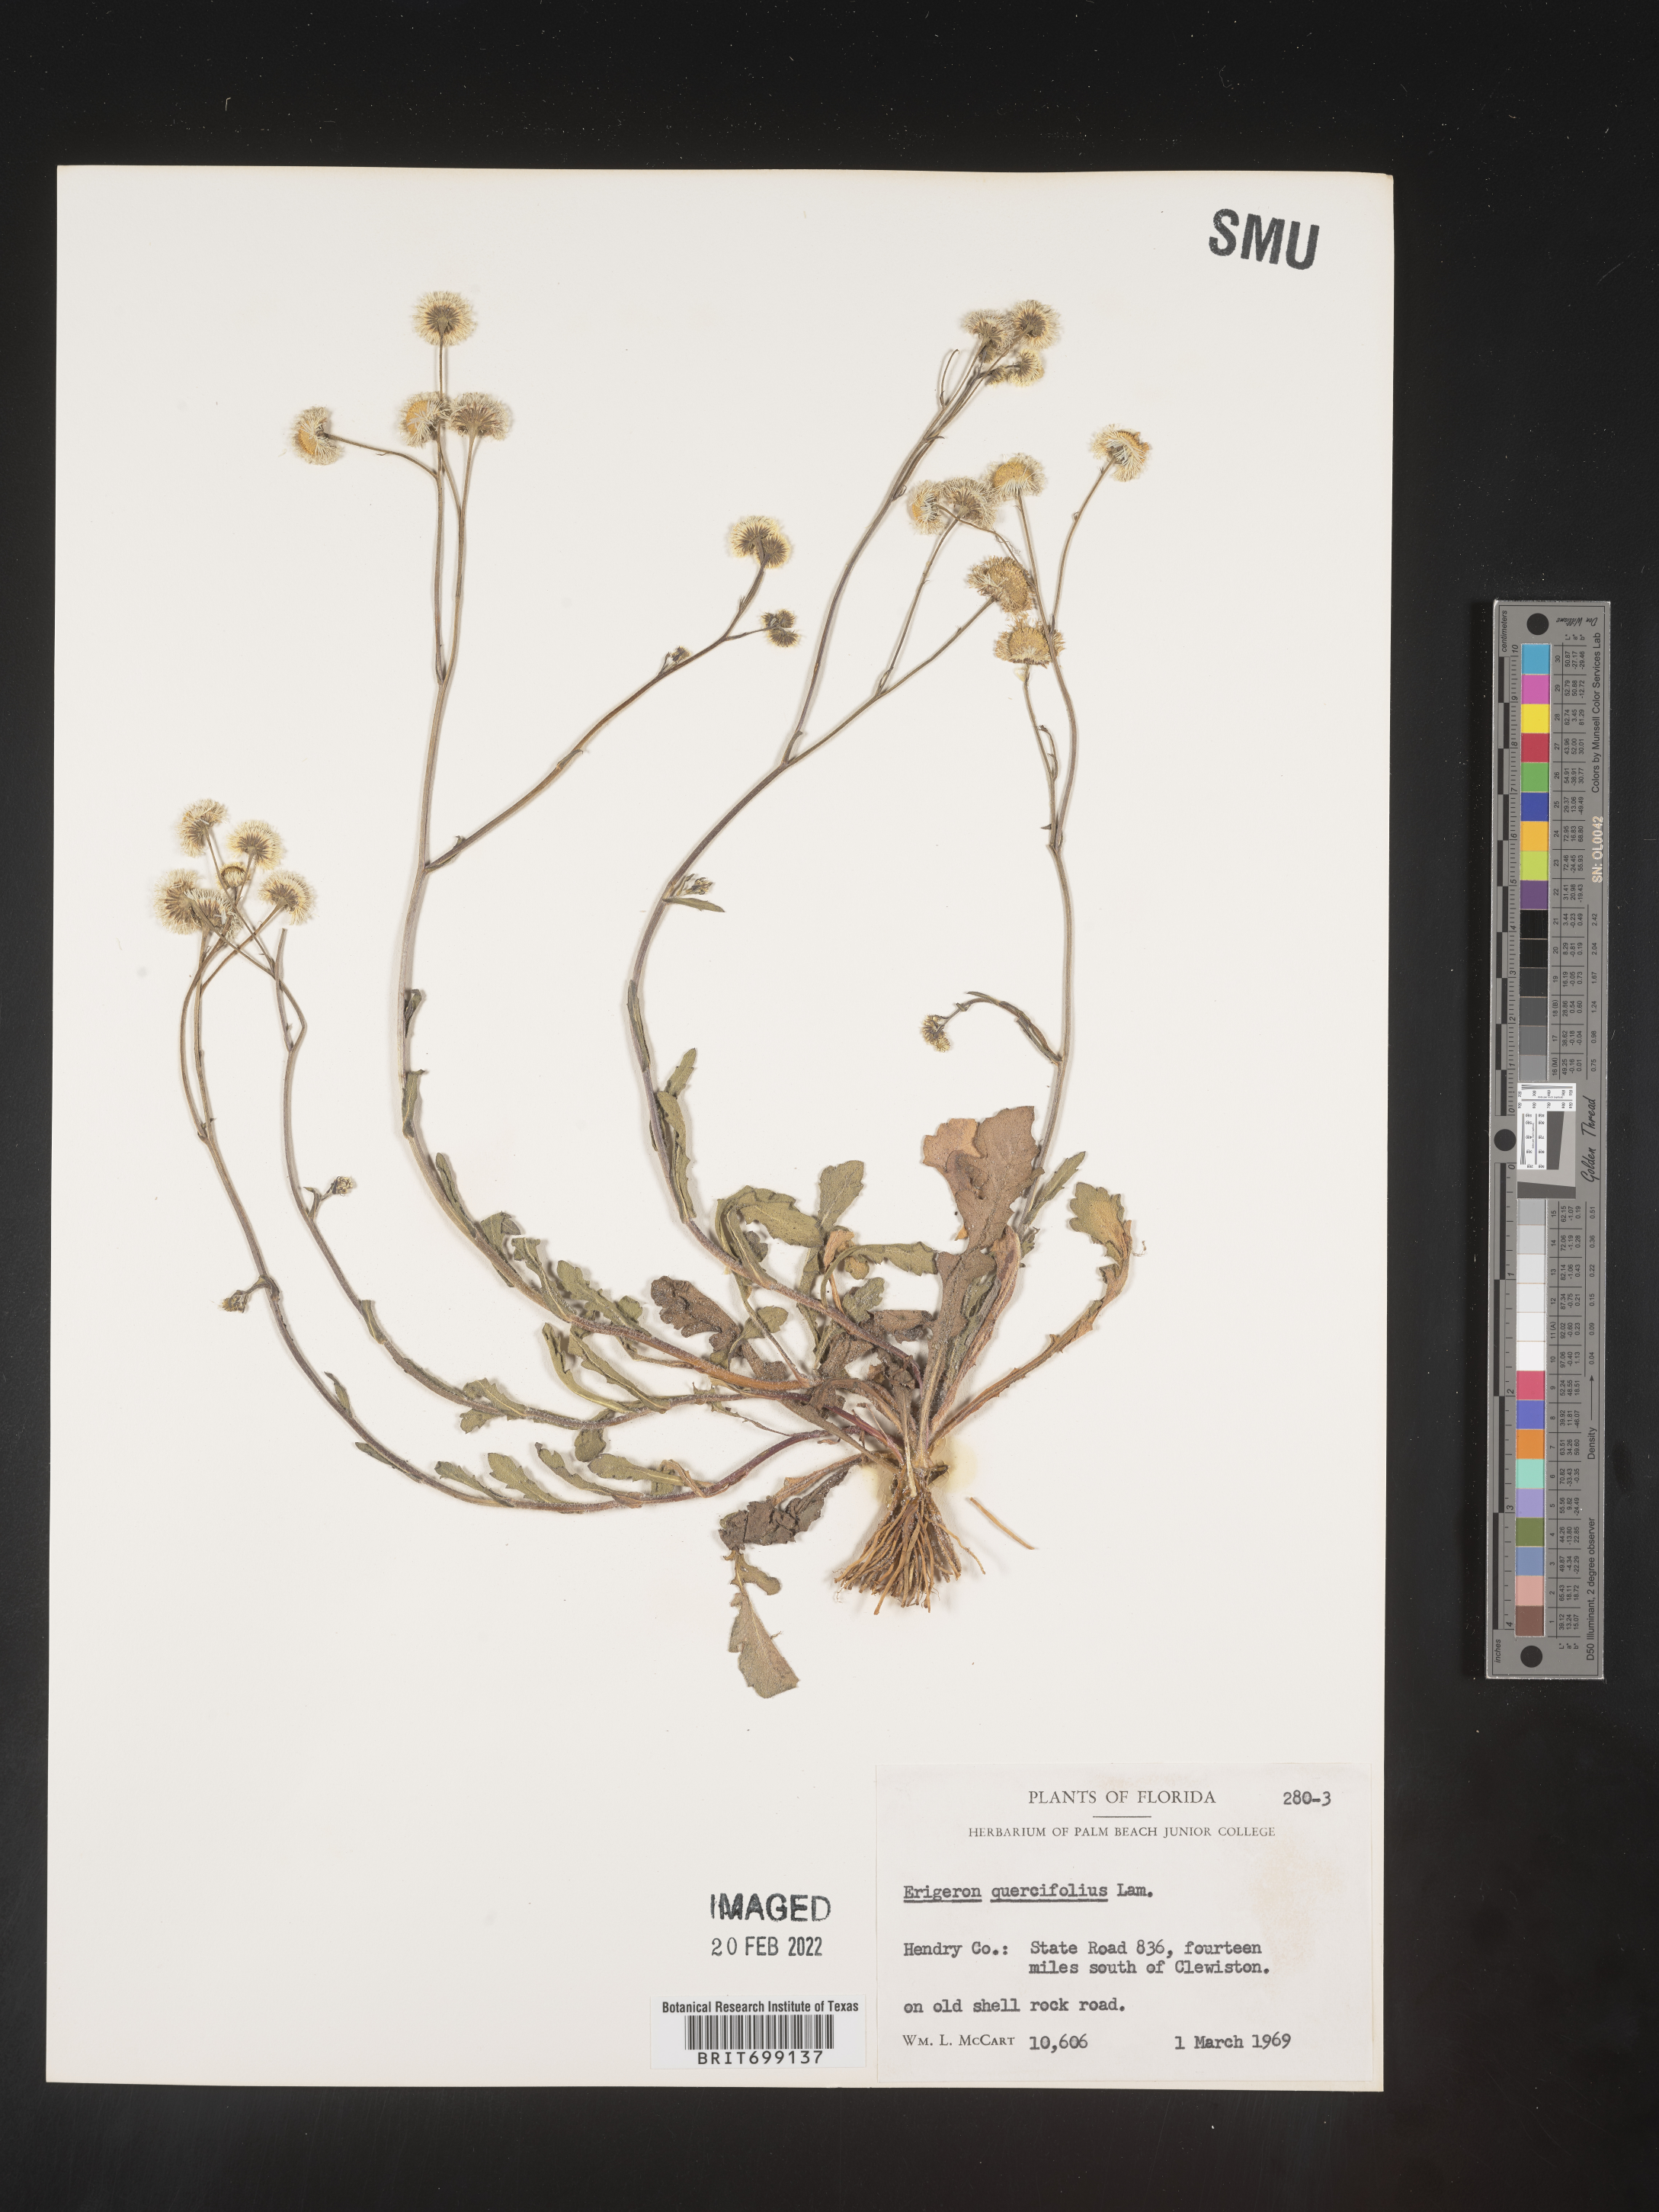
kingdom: Plantae
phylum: Tracheophyta
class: Magnoliopsida
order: Asterales
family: Asteraceae
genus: Erigeron
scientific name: Erigeron quercifolius
